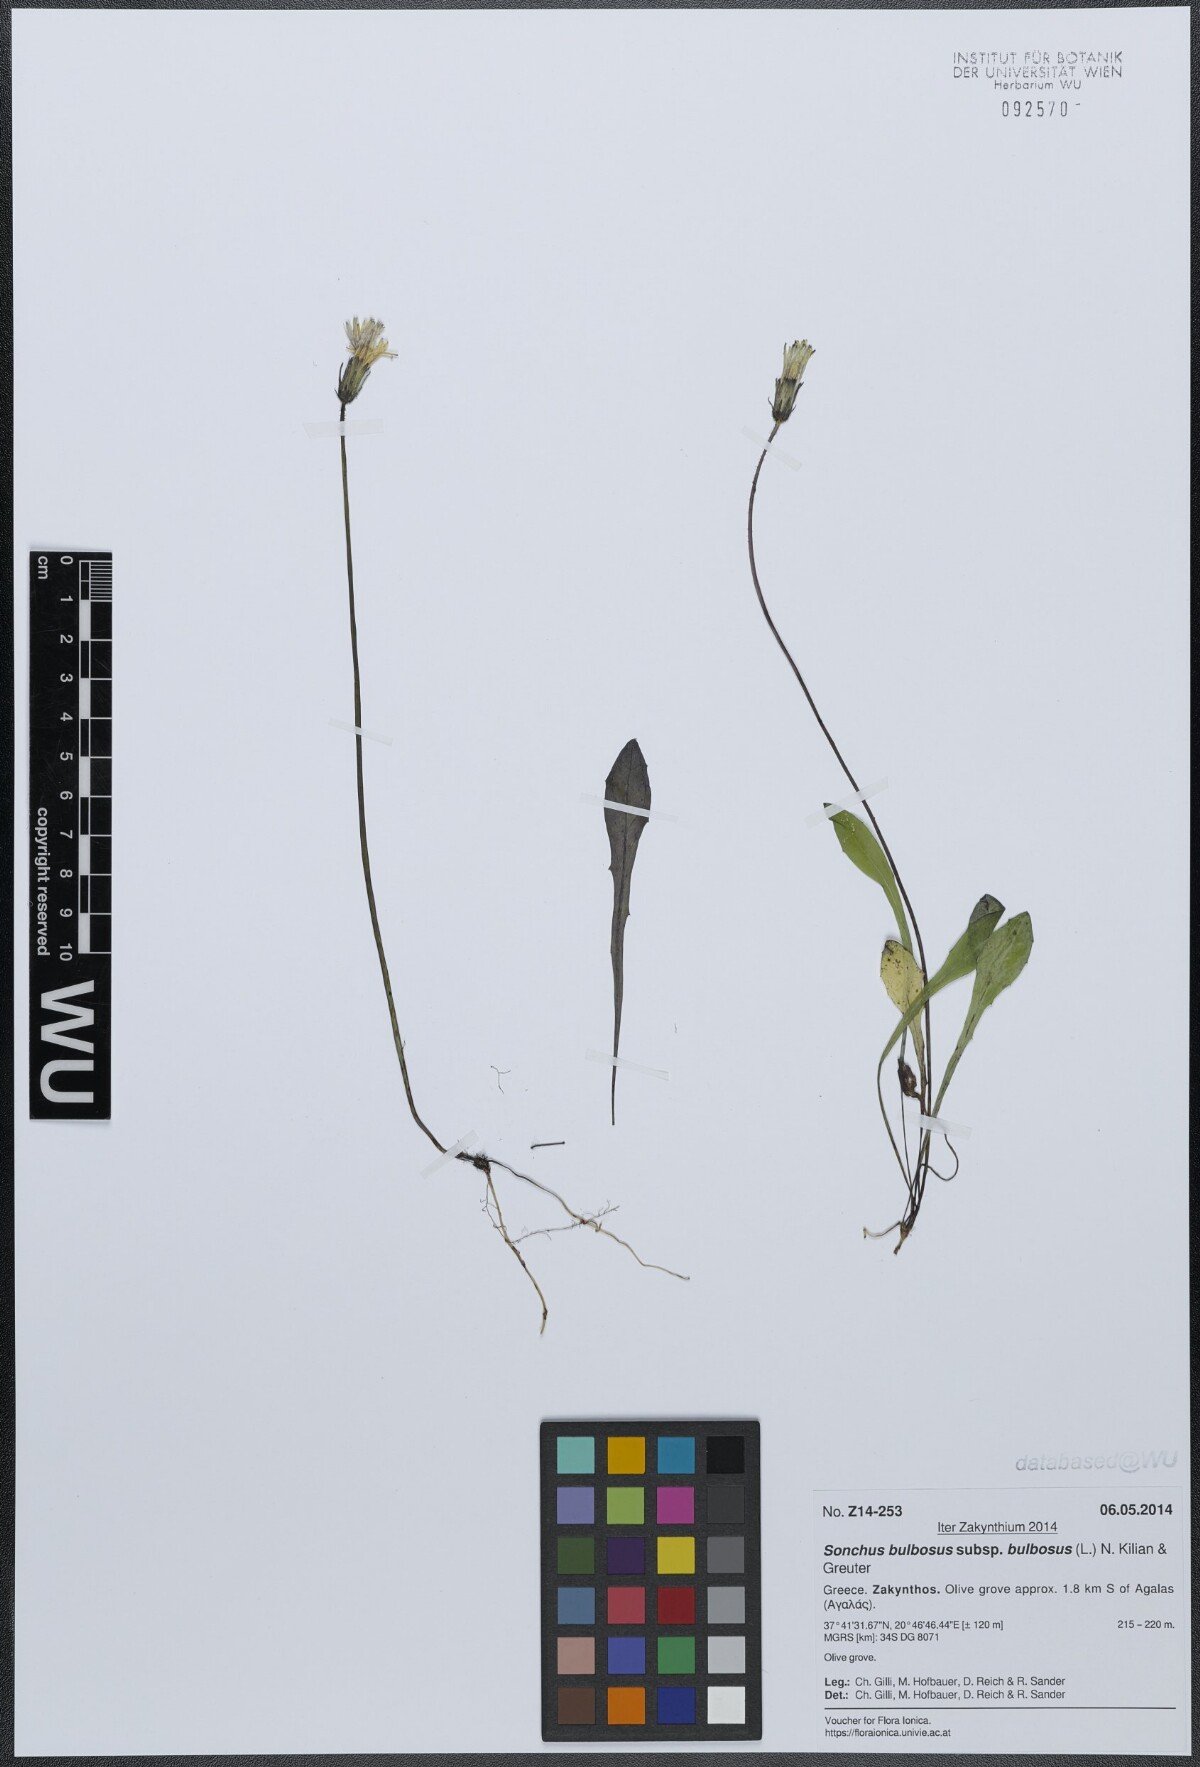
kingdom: Plantae
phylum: Tracheophyta
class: Magnoliopsida
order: Asterales
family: Asteraceae
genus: Aetheorhiza
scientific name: Aetheorhiza bulbosa
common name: Tuberous hawk's-beard
